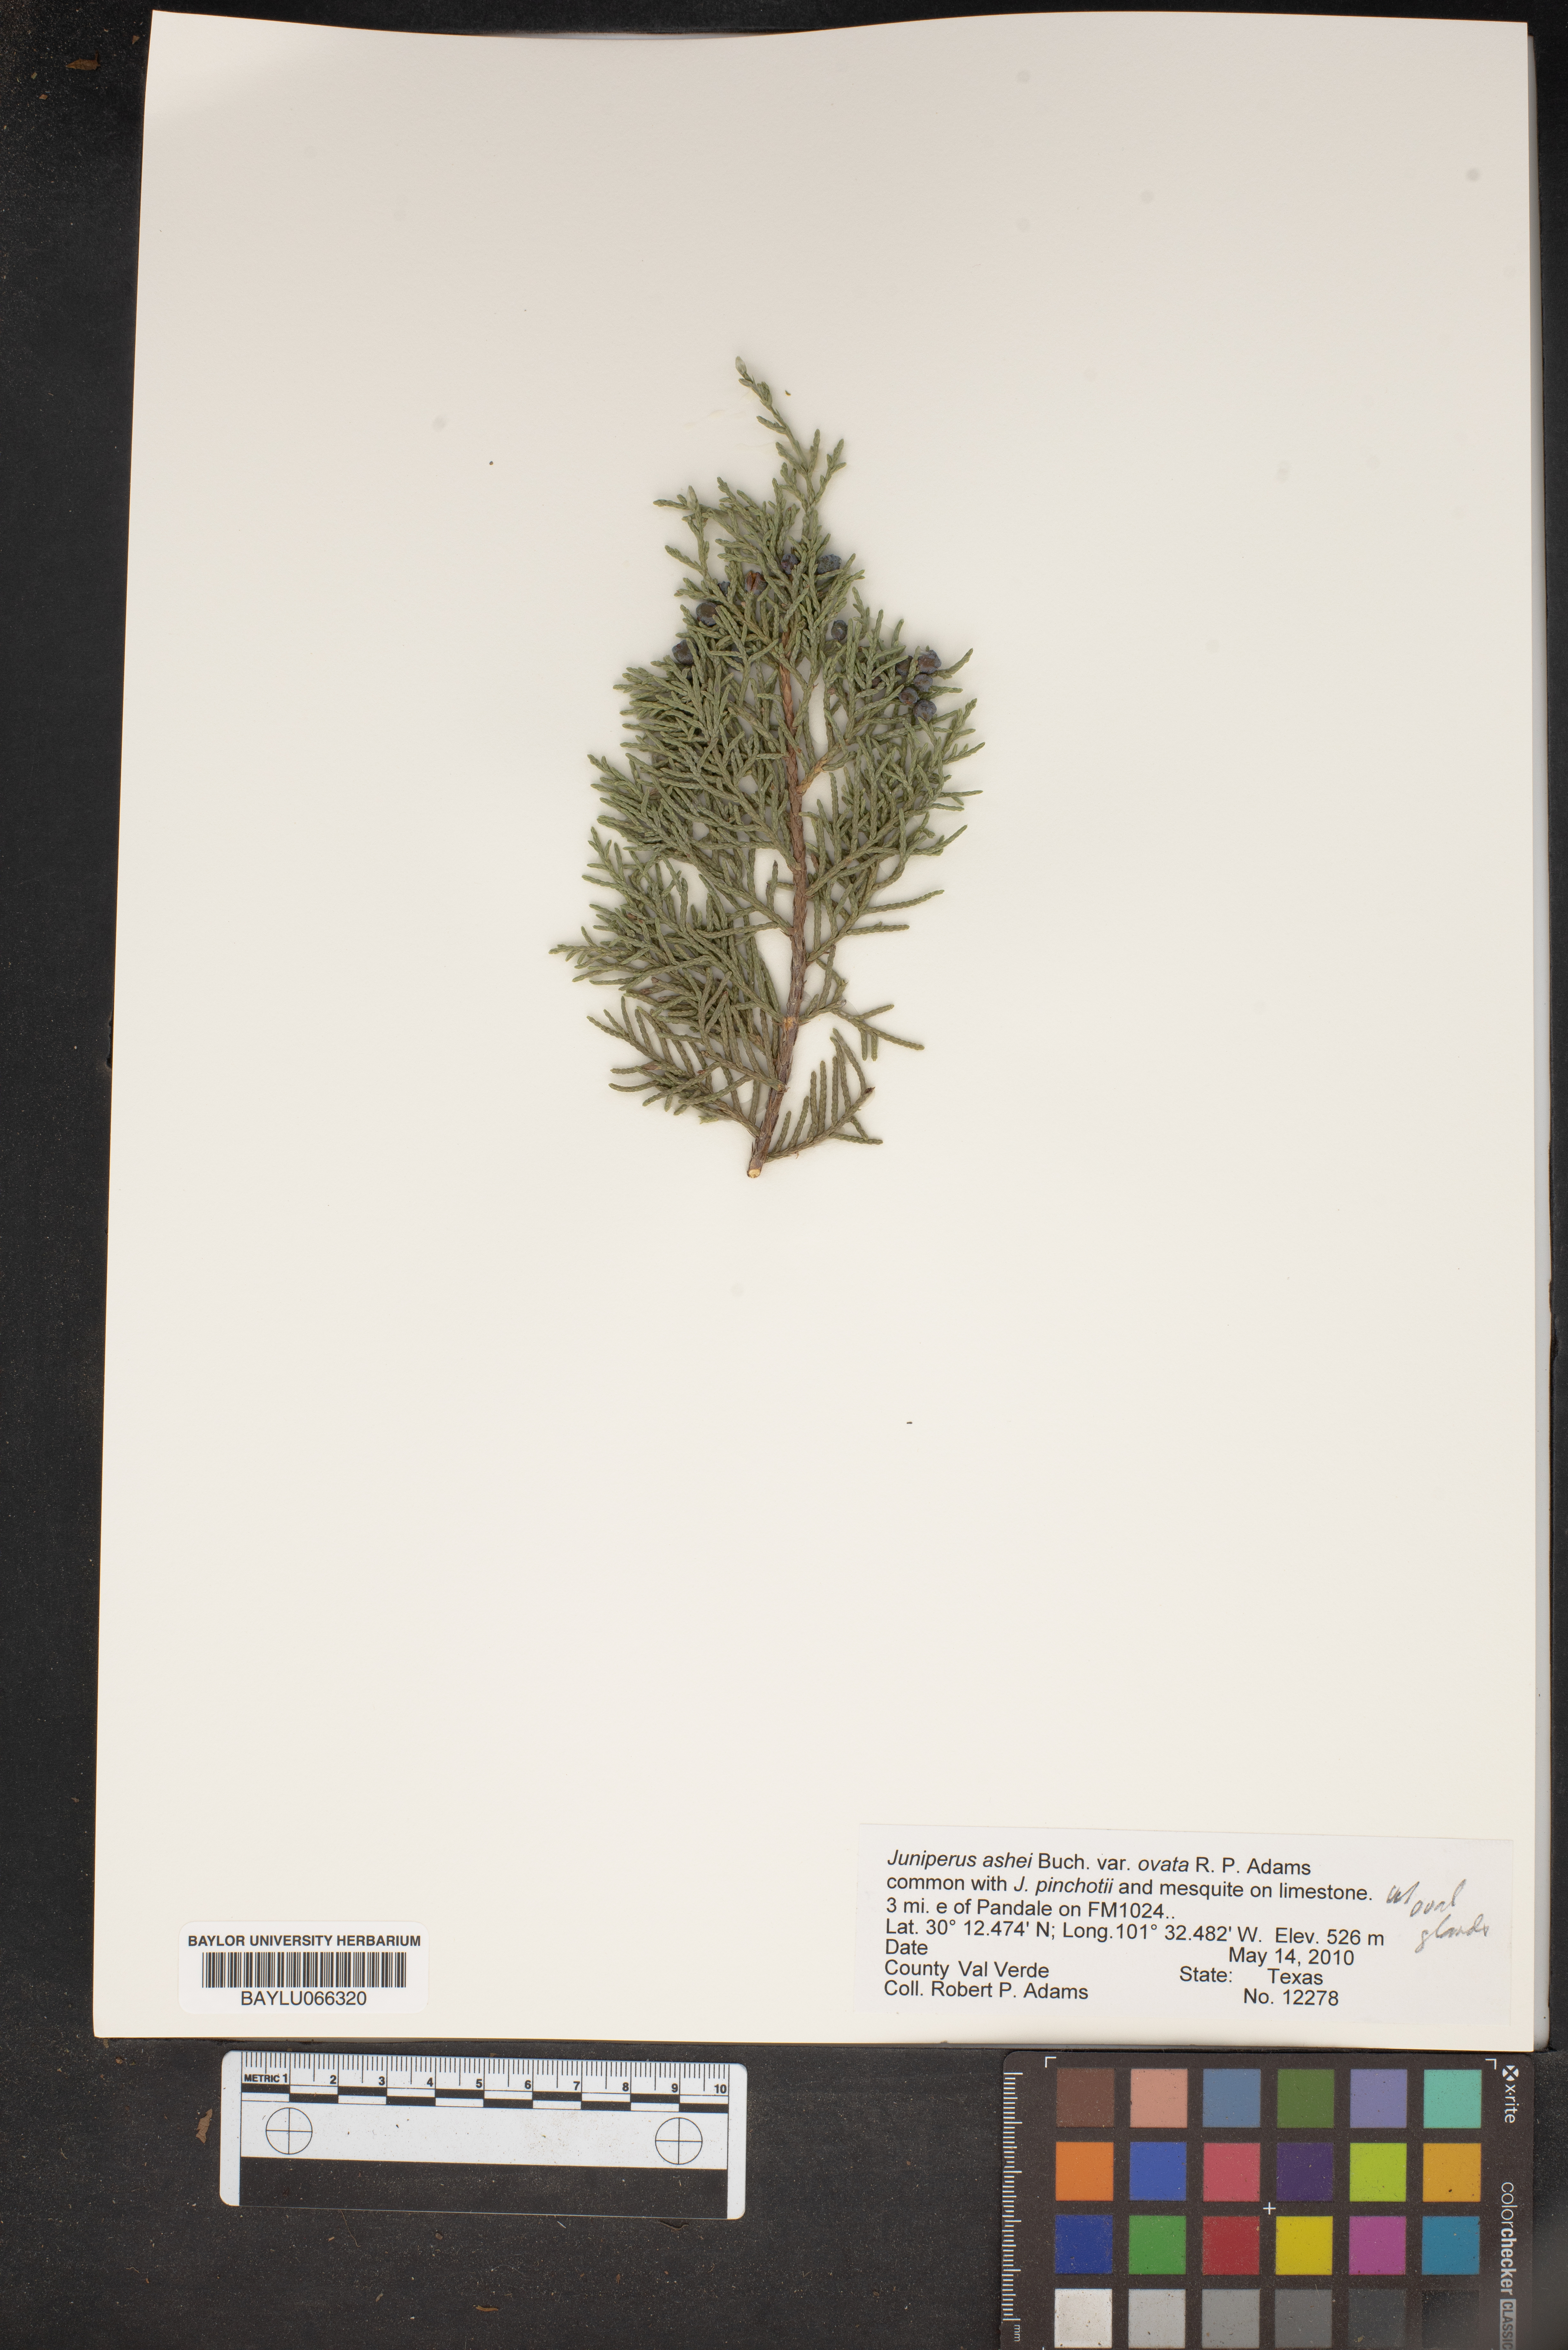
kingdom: Plantae
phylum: Tracheophyta
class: Pinopsida
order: Pinales
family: Cupressaceae
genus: Juniperus
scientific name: Juniperus ashei
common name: Mexican juniper
